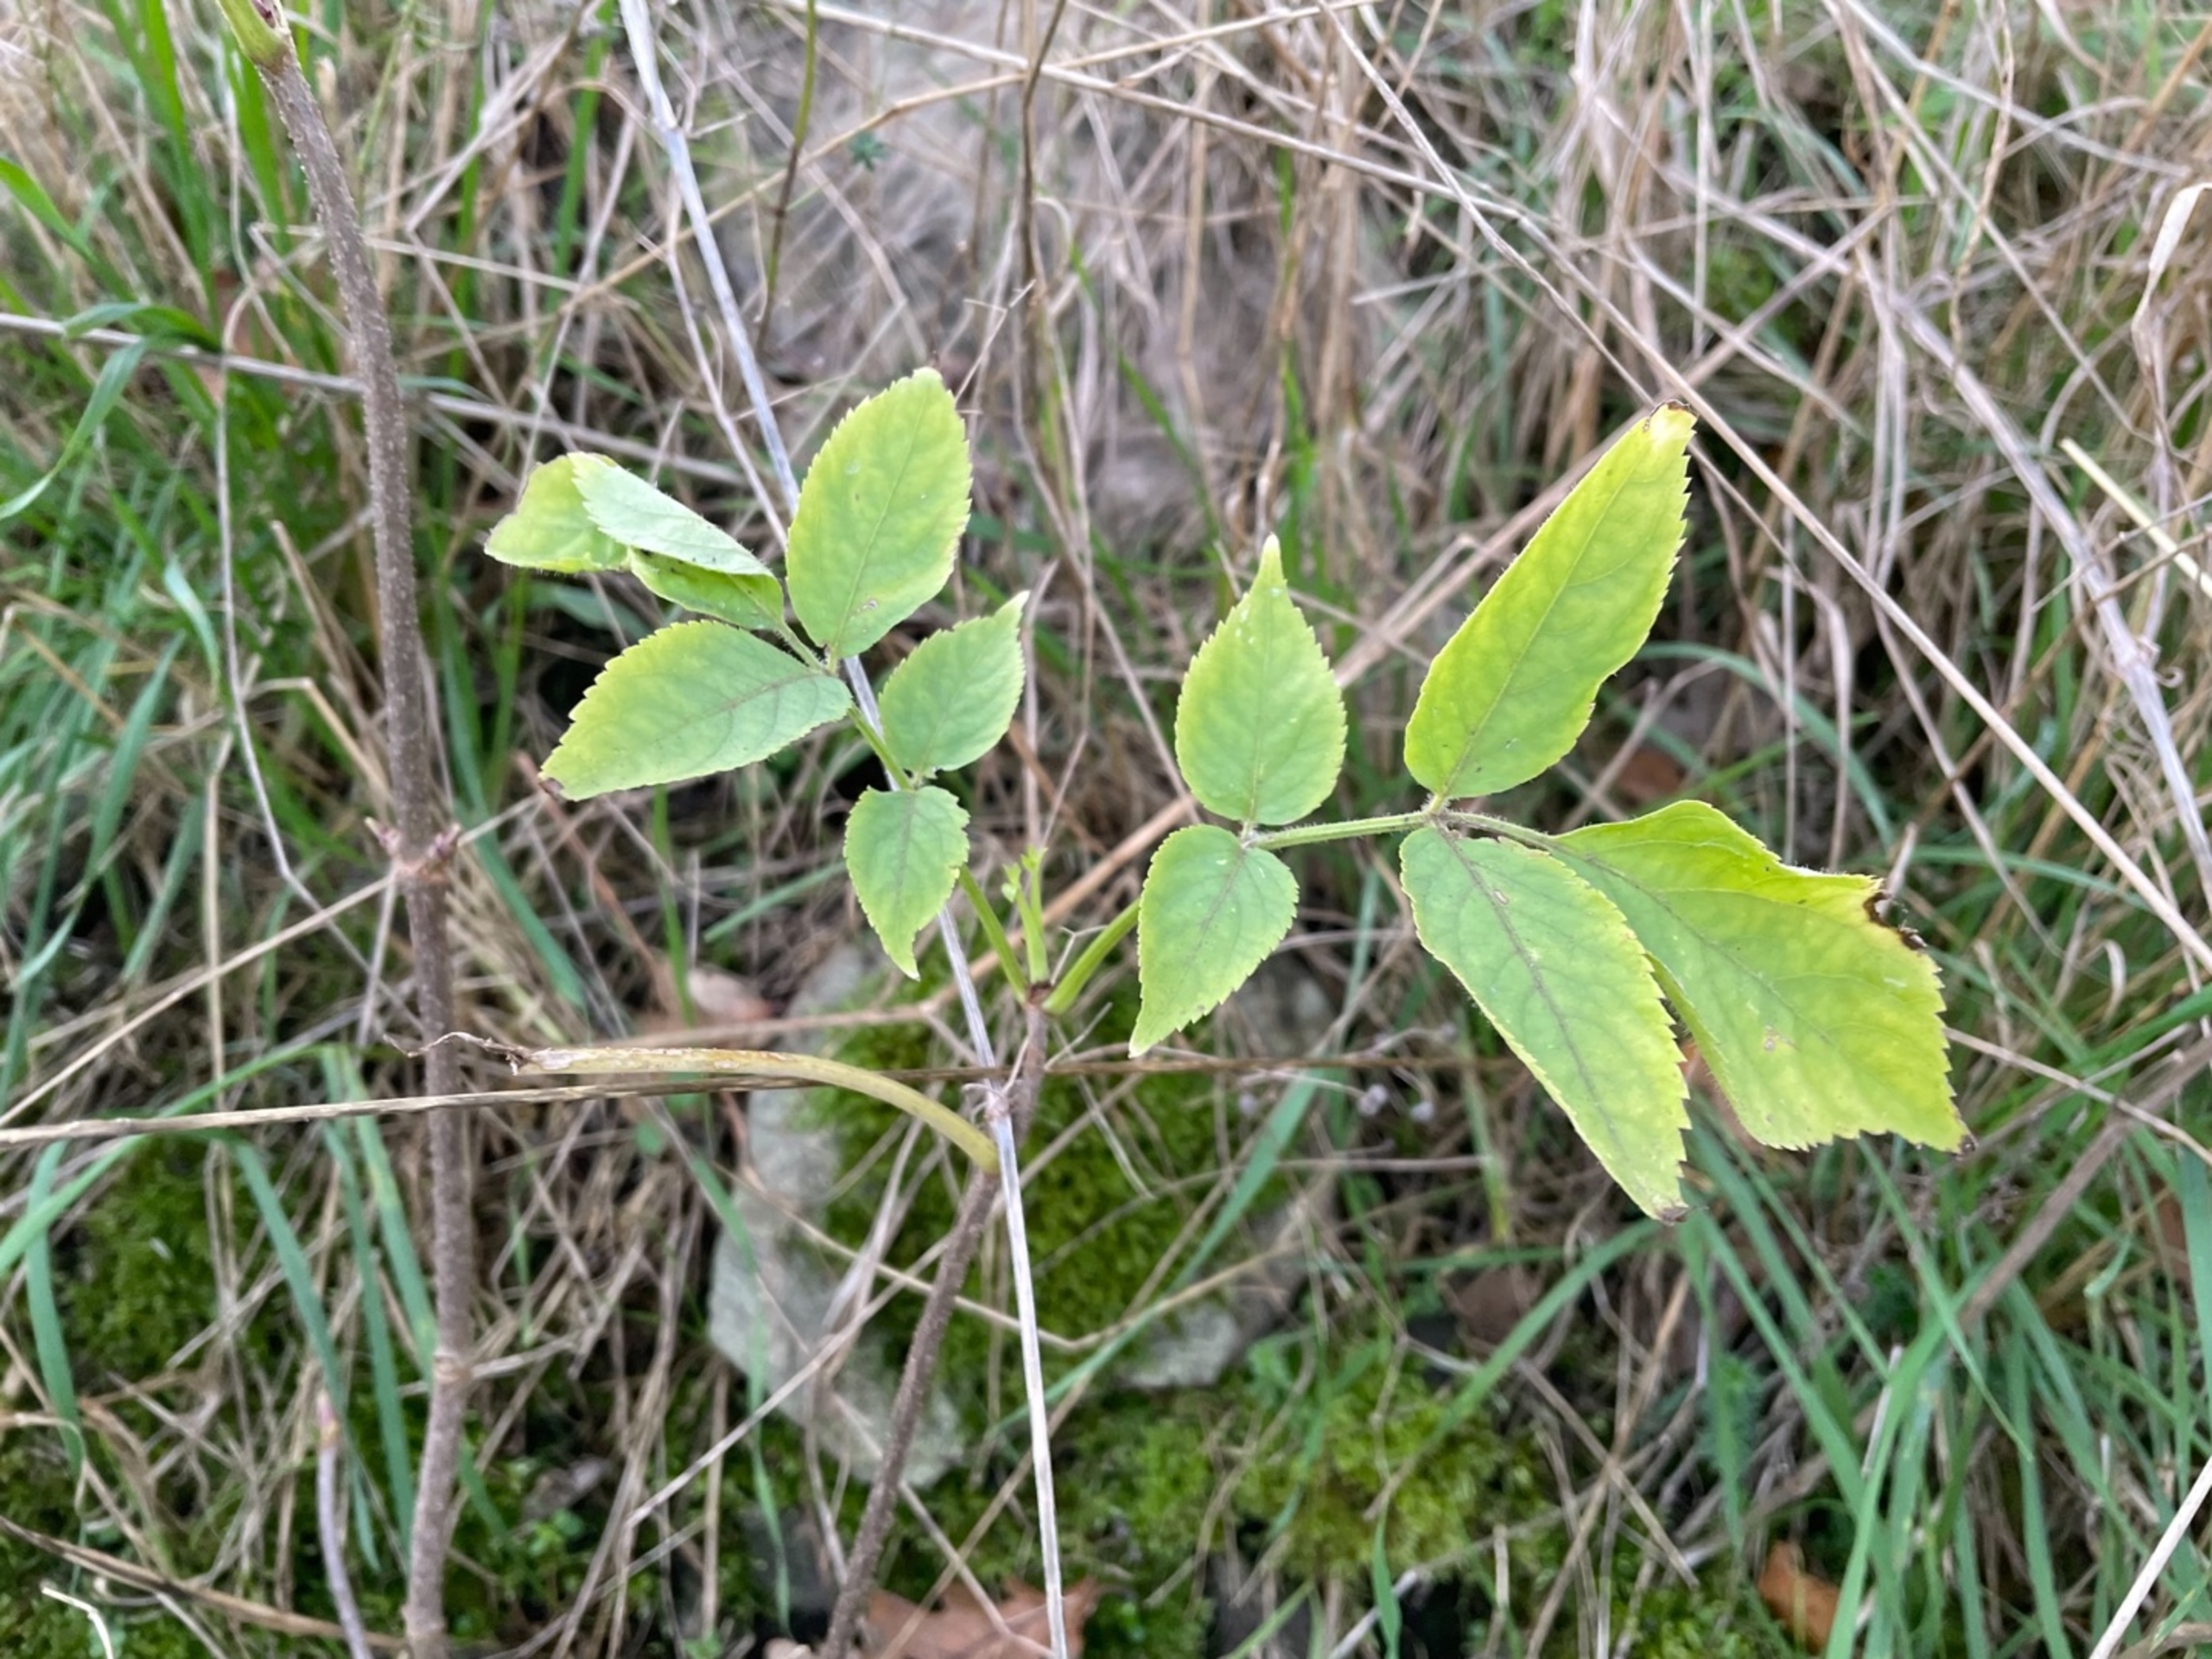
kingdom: Plantae
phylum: Tracheophyta
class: Magnoliopsida
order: Dipsacales
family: Viburnaceae
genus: Sambucus
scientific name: Sambucus nigra
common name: Almindelig hyld
